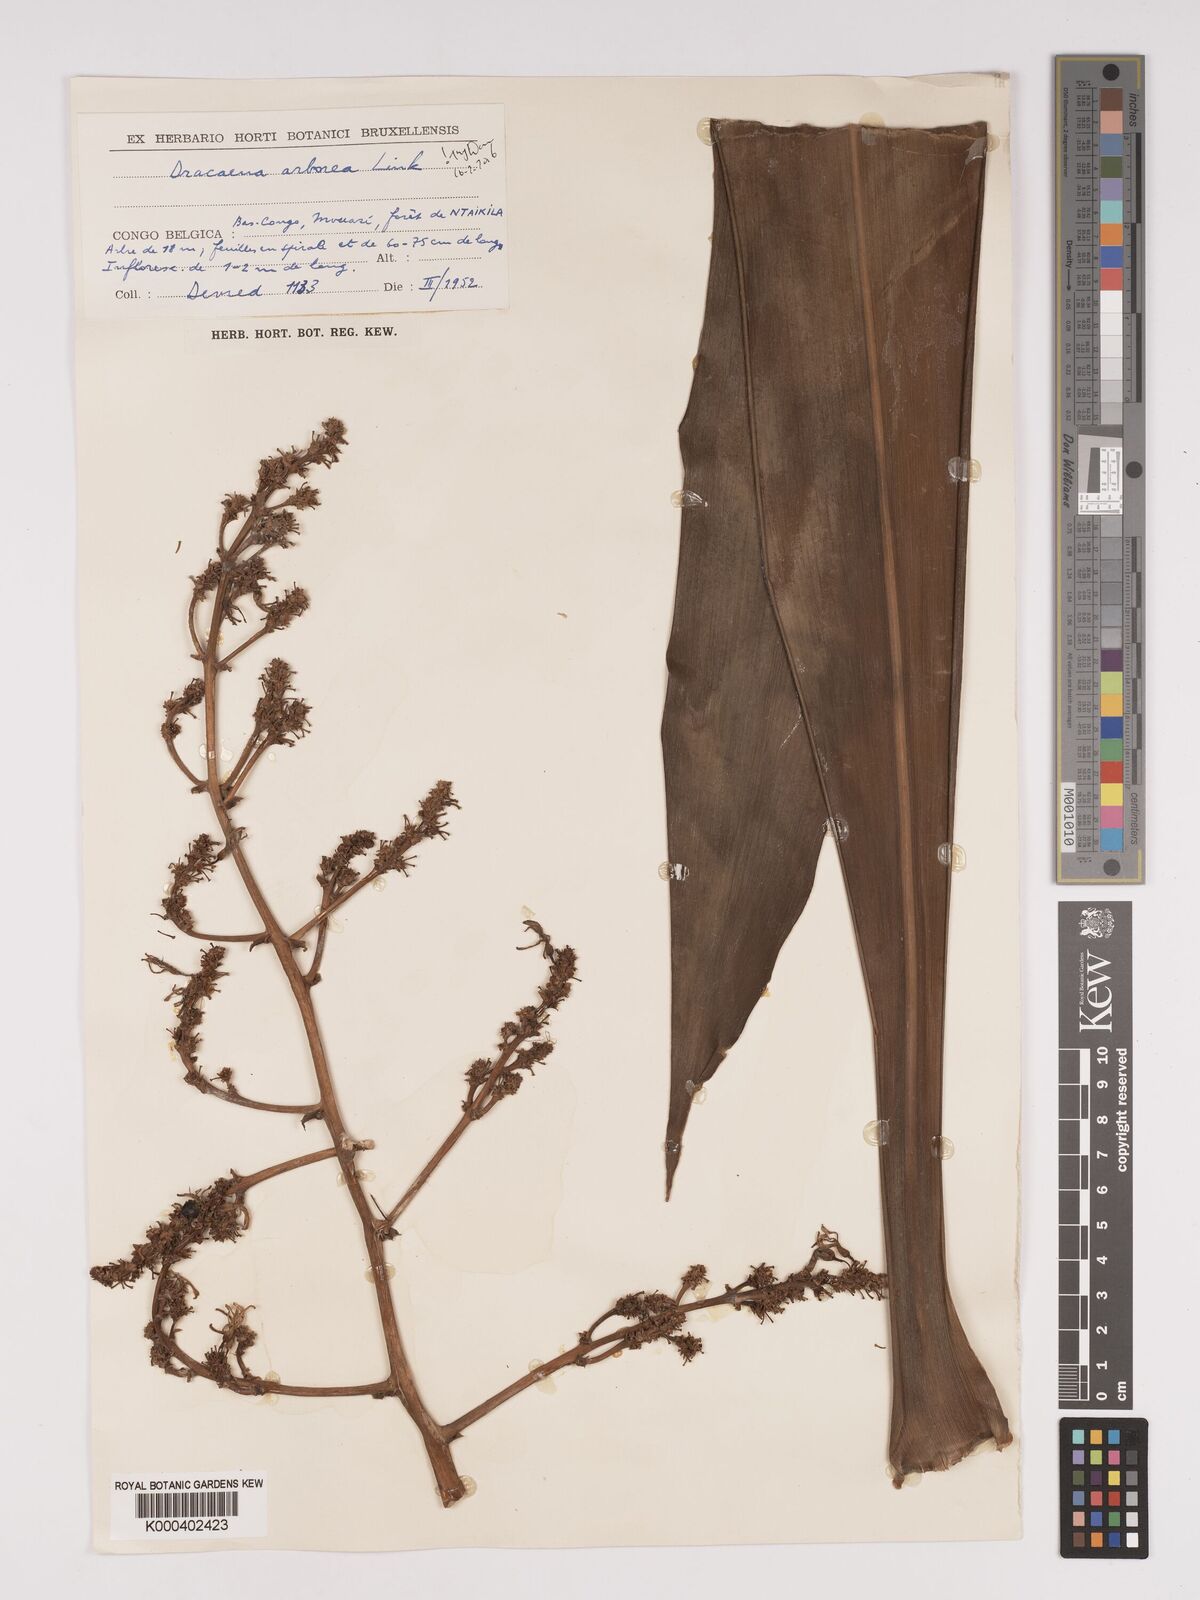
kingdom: Plantae
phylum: Tracheophyta
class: Liliopsida
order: Asparagales
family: Asparagaceae
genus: Dracaena
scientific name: Dracaena arborea
